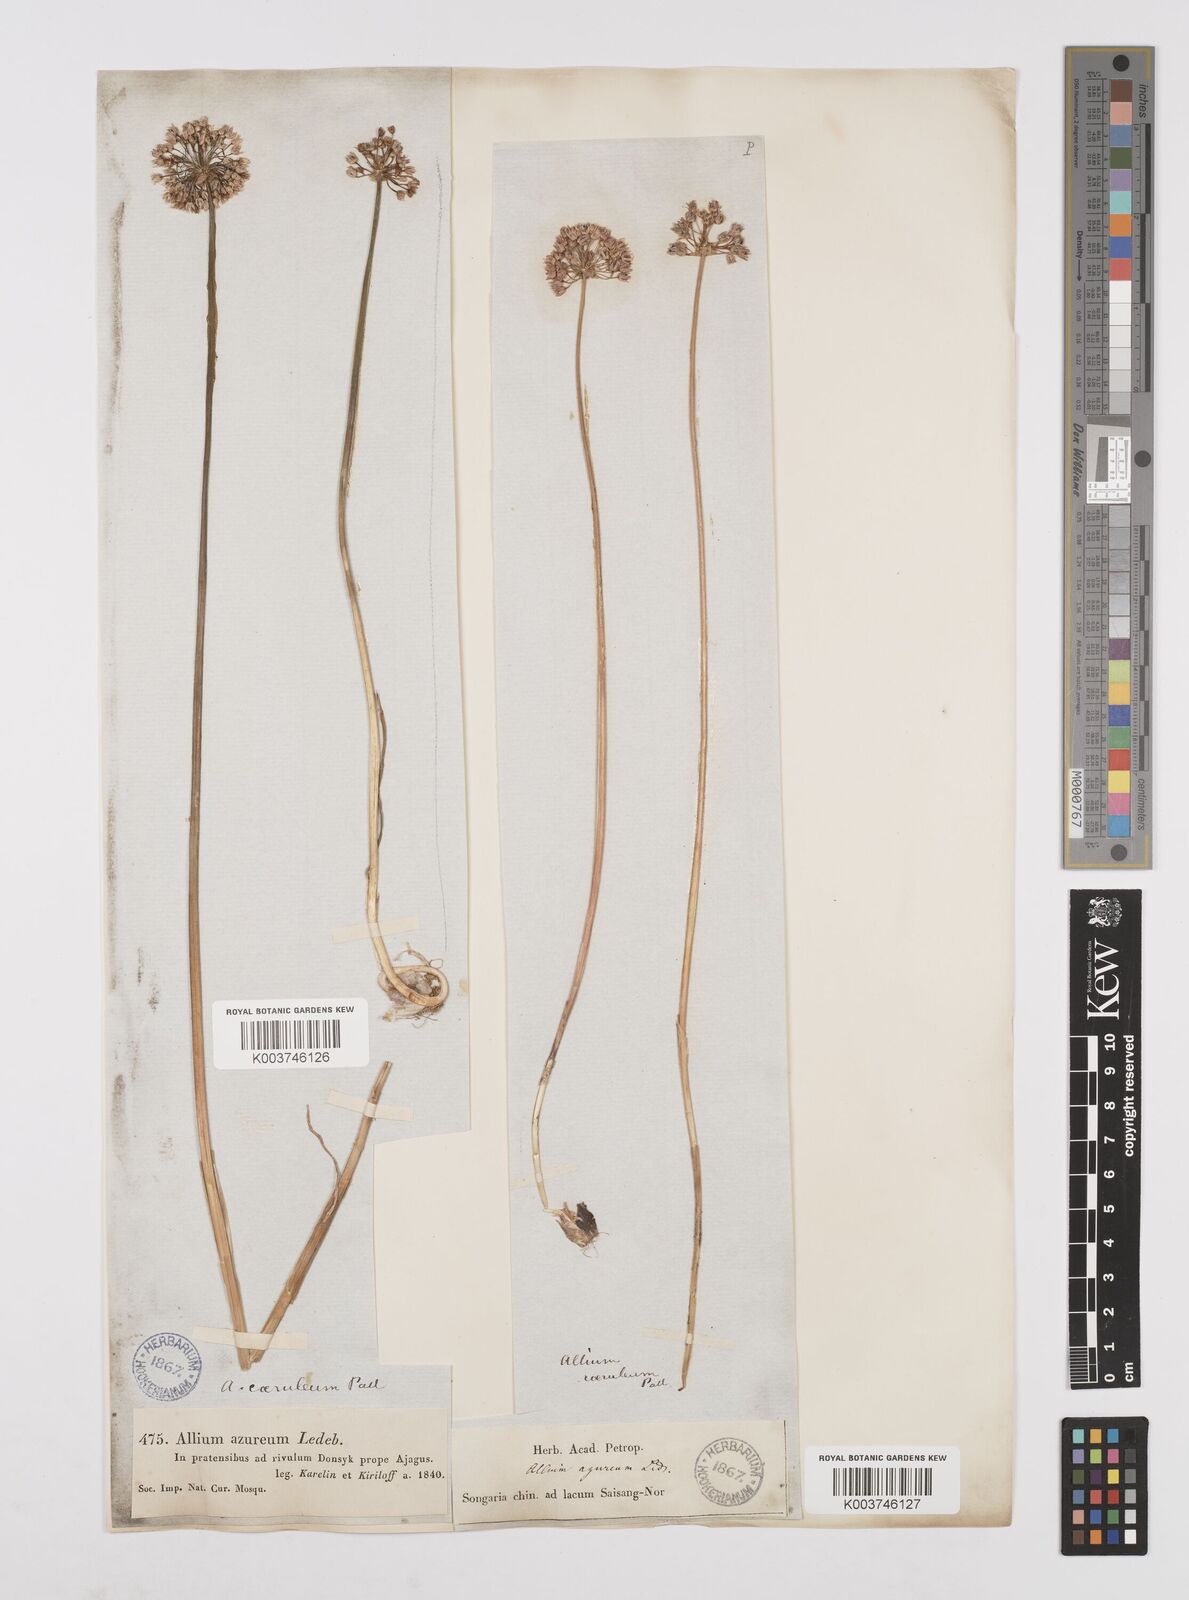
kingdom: Plantae
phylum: Tracheophyta
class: Liliopsida
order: Asparagales
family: Amaryllidaceae
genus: Allium
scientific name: Allium caeruleum
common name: Blue-of-the-heavens
